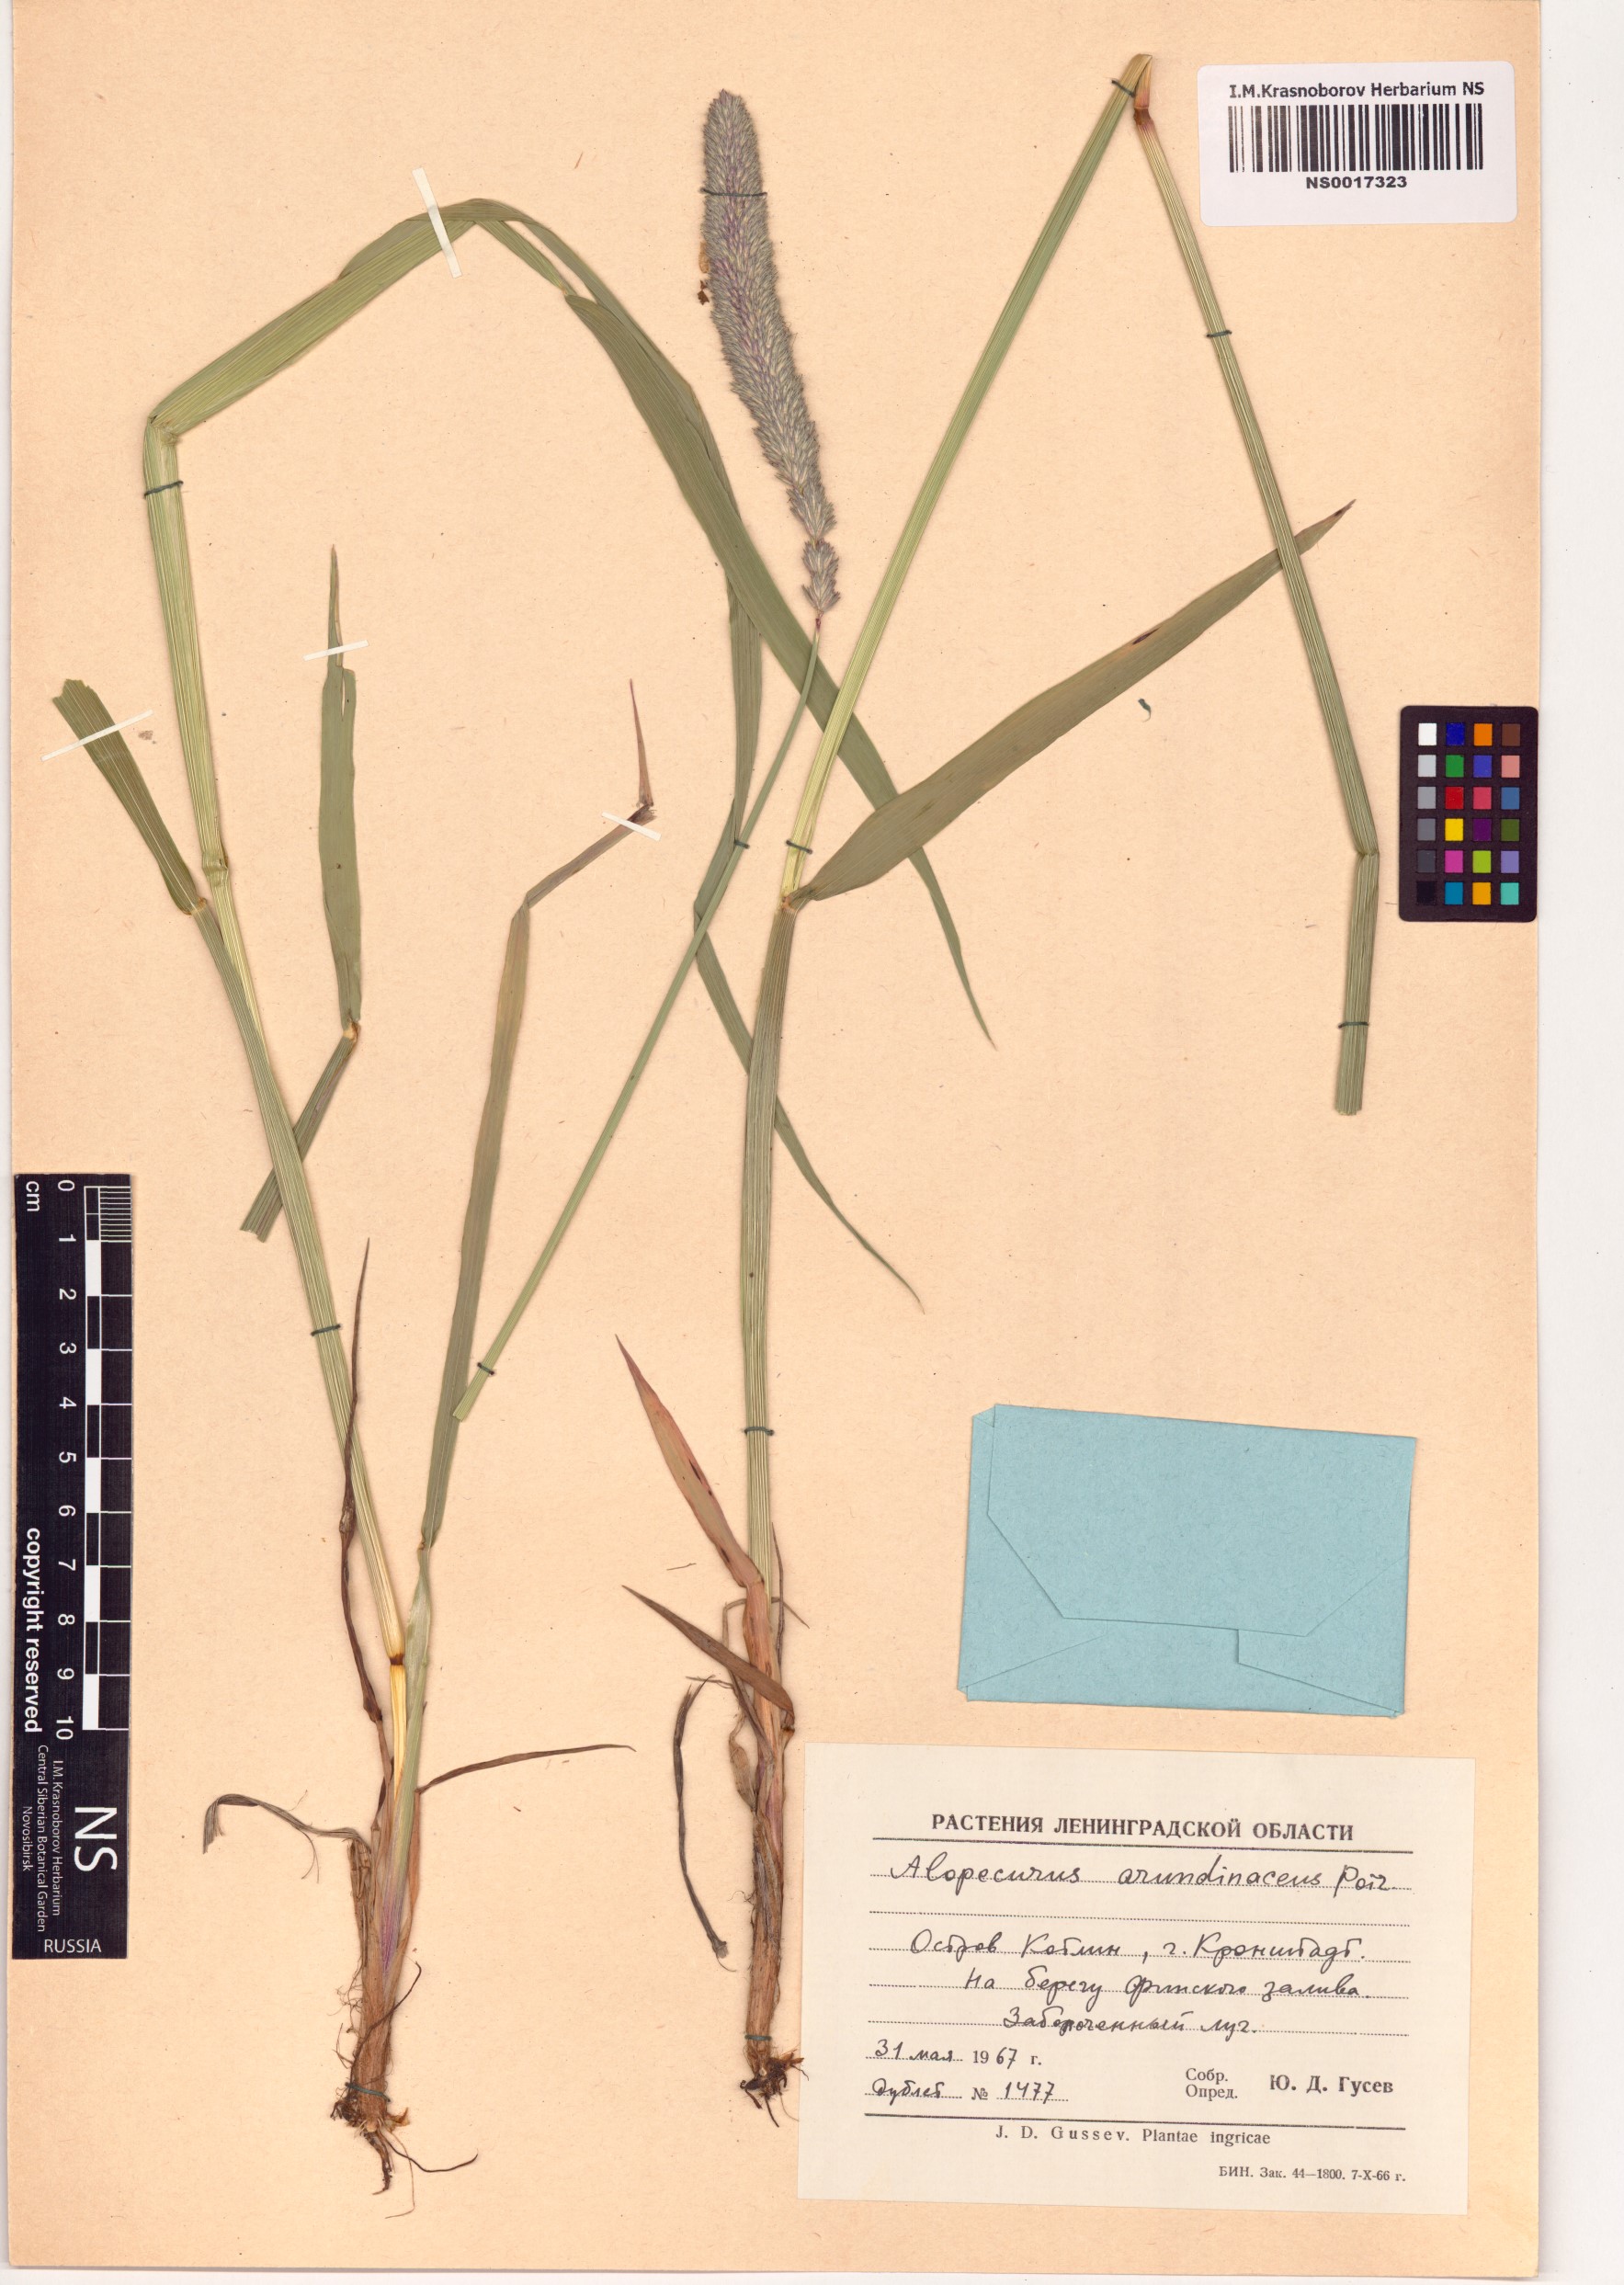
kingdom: Plantae
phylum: Tracheophyta
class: Liliopsida
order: Poales
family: Poaceae
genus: Alopecurus
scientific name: Alopecurus arundinaceus
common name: Creeping meadow foxtail
